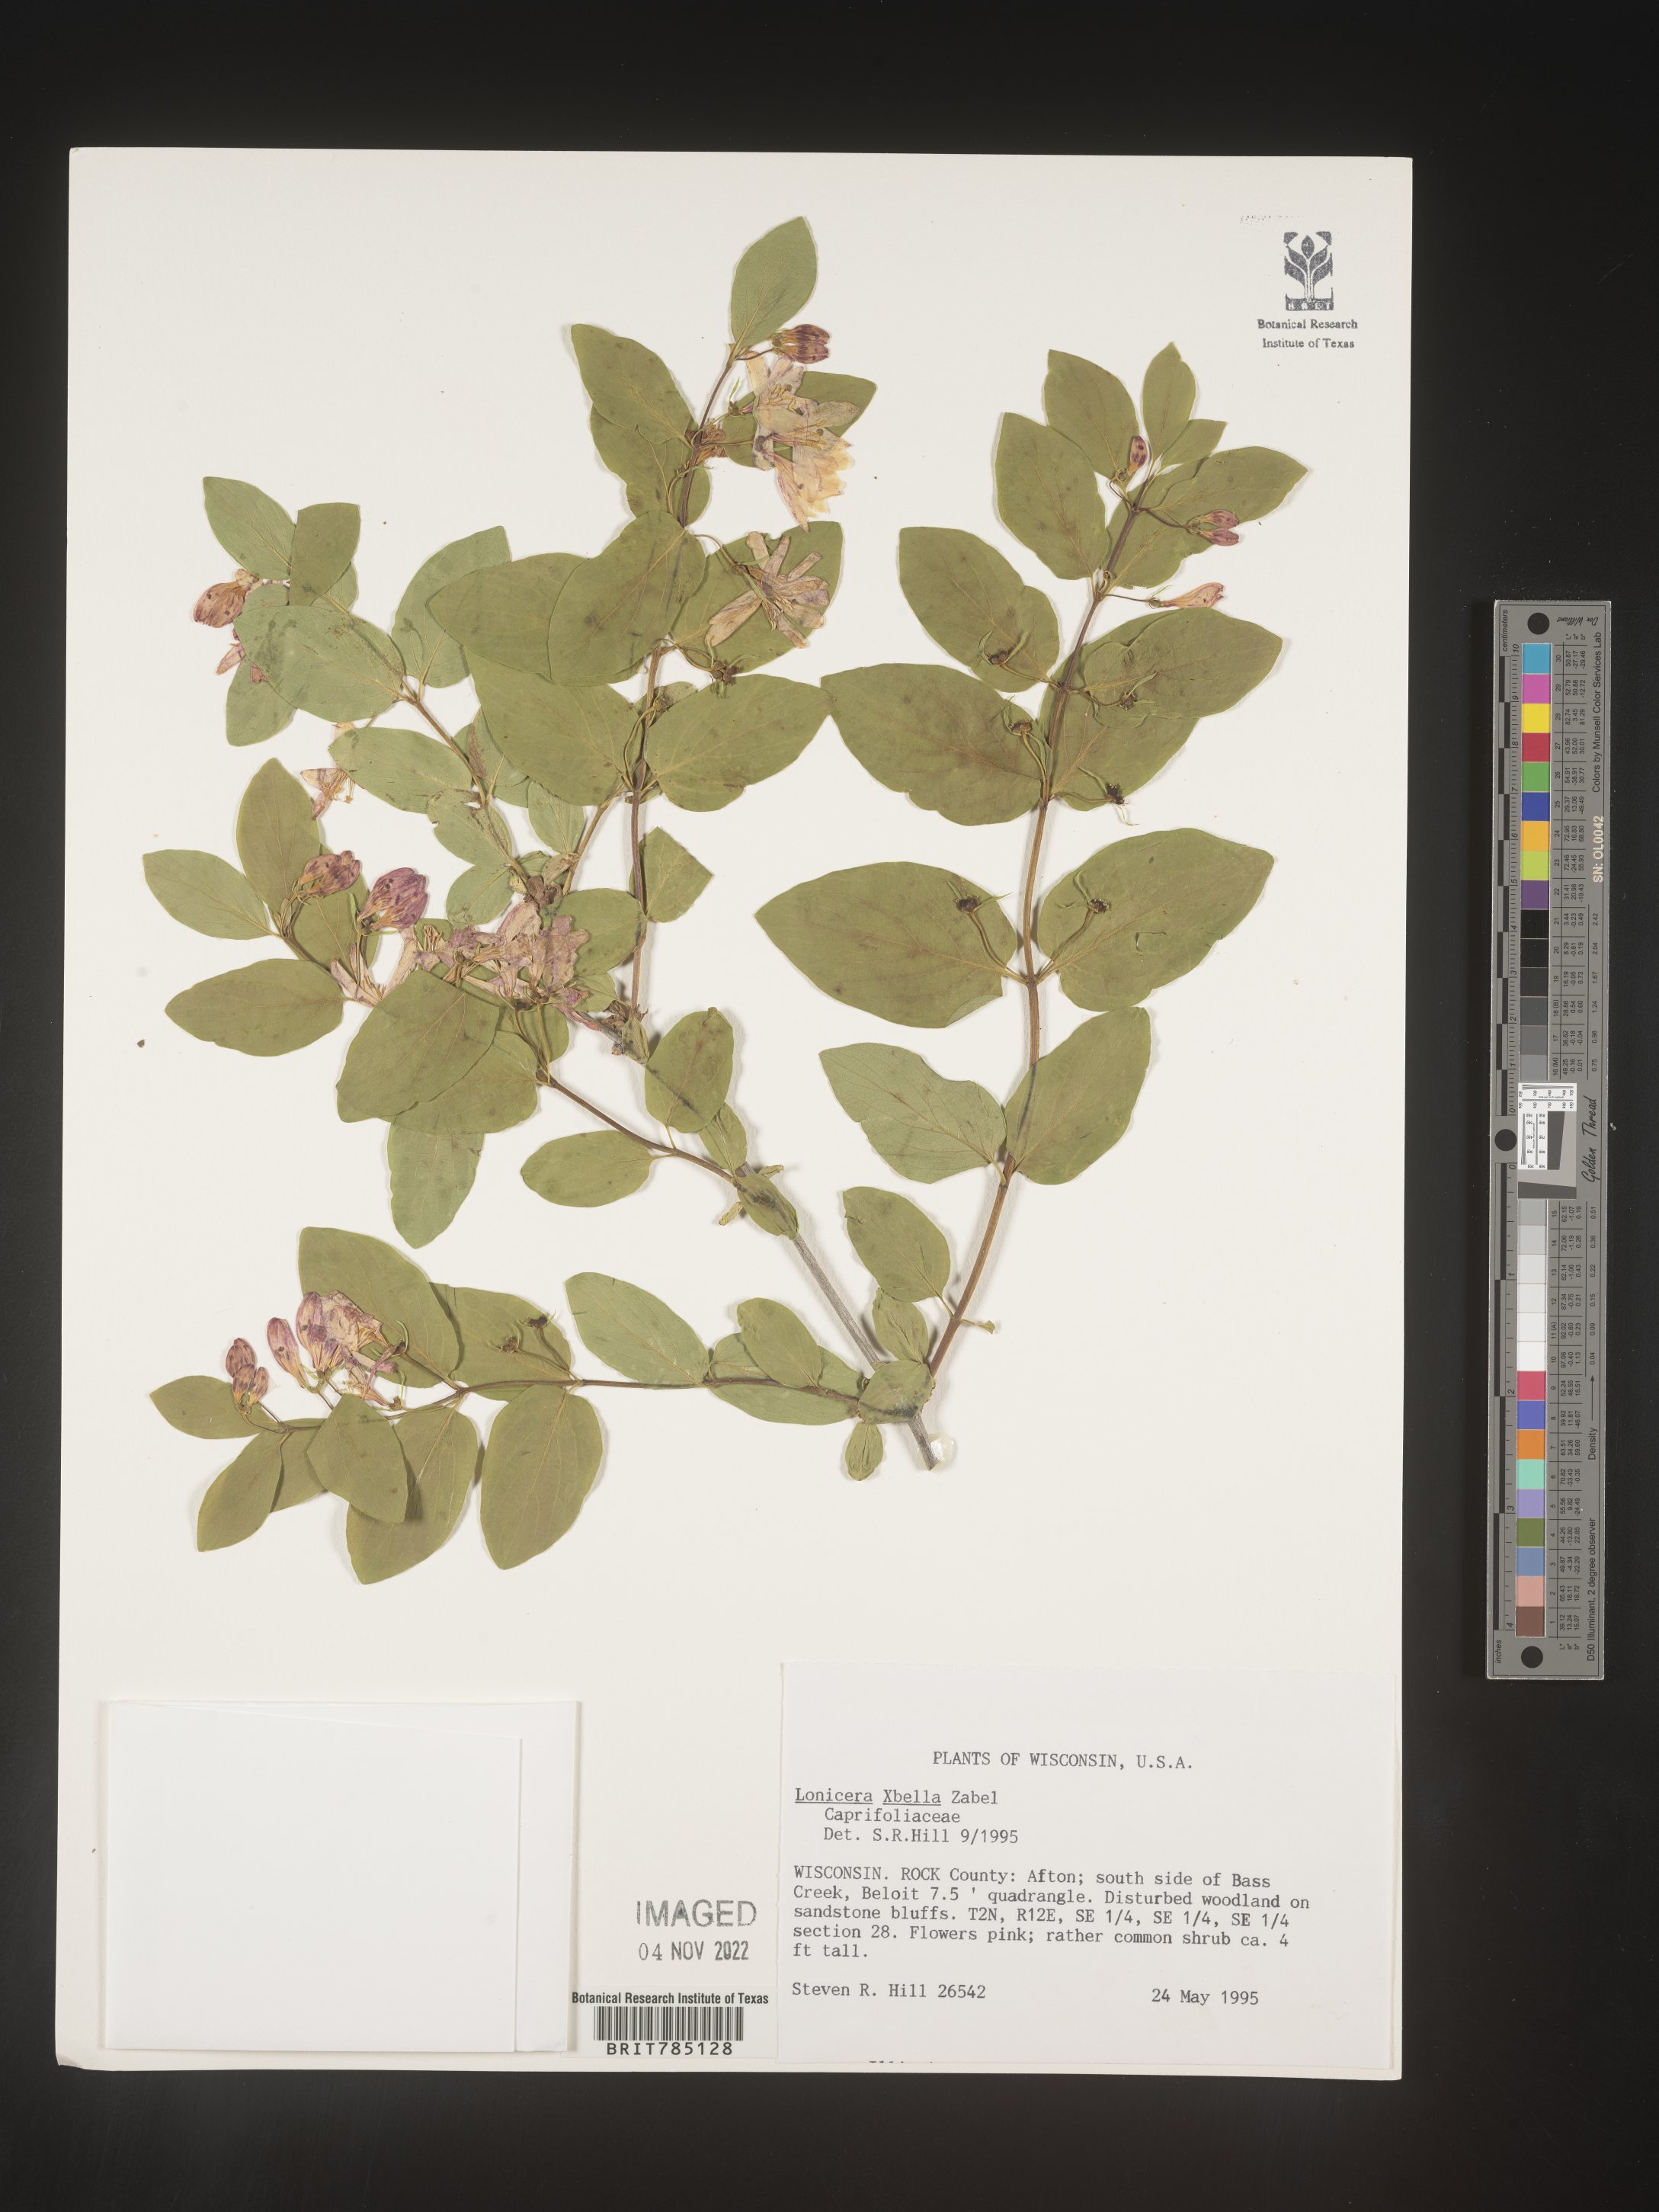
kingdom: Plantae
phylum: Tracheophyta
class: Magnoliopsida
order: Dipsacales
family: Caprifoliaceae
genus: Lonicera
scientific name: Lonicera bella
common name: Bell's honeysuckle
